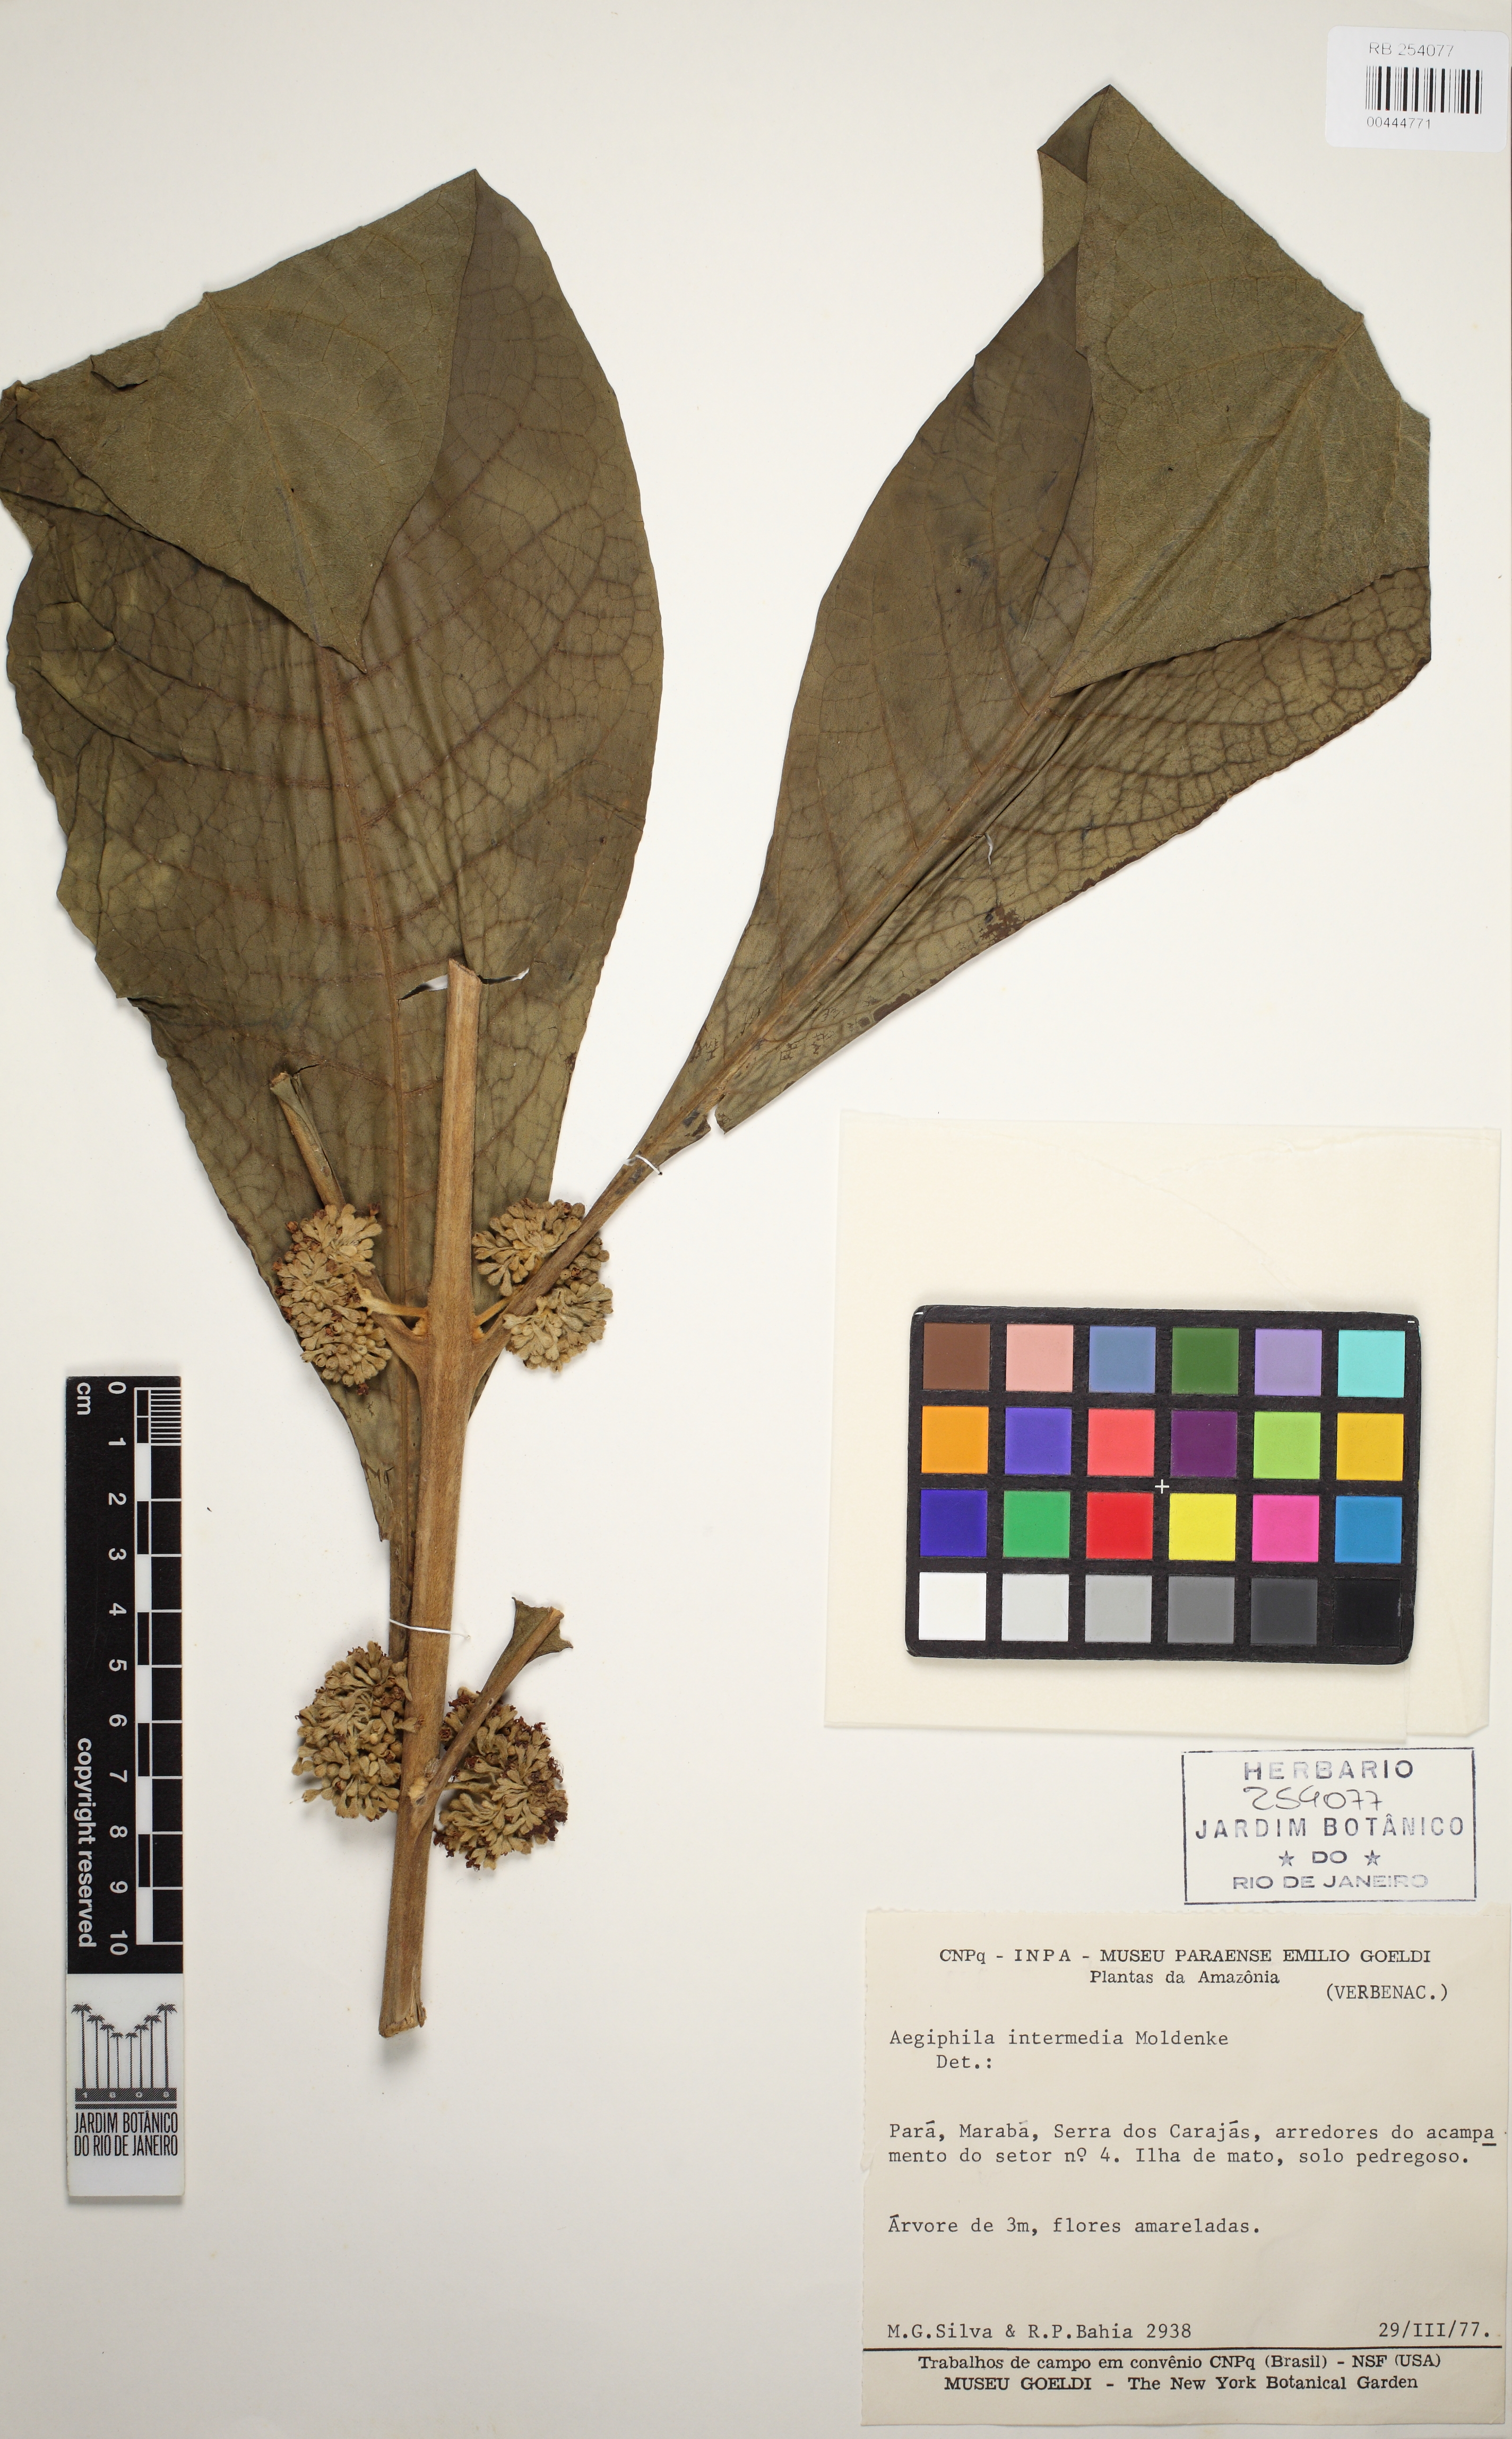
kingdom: Plantae
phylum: Tracheophyta
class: Magnoliopsida
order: Lamiales
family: Lamiaceae
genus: Aegiphila
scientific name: Aegiphila intermedia
